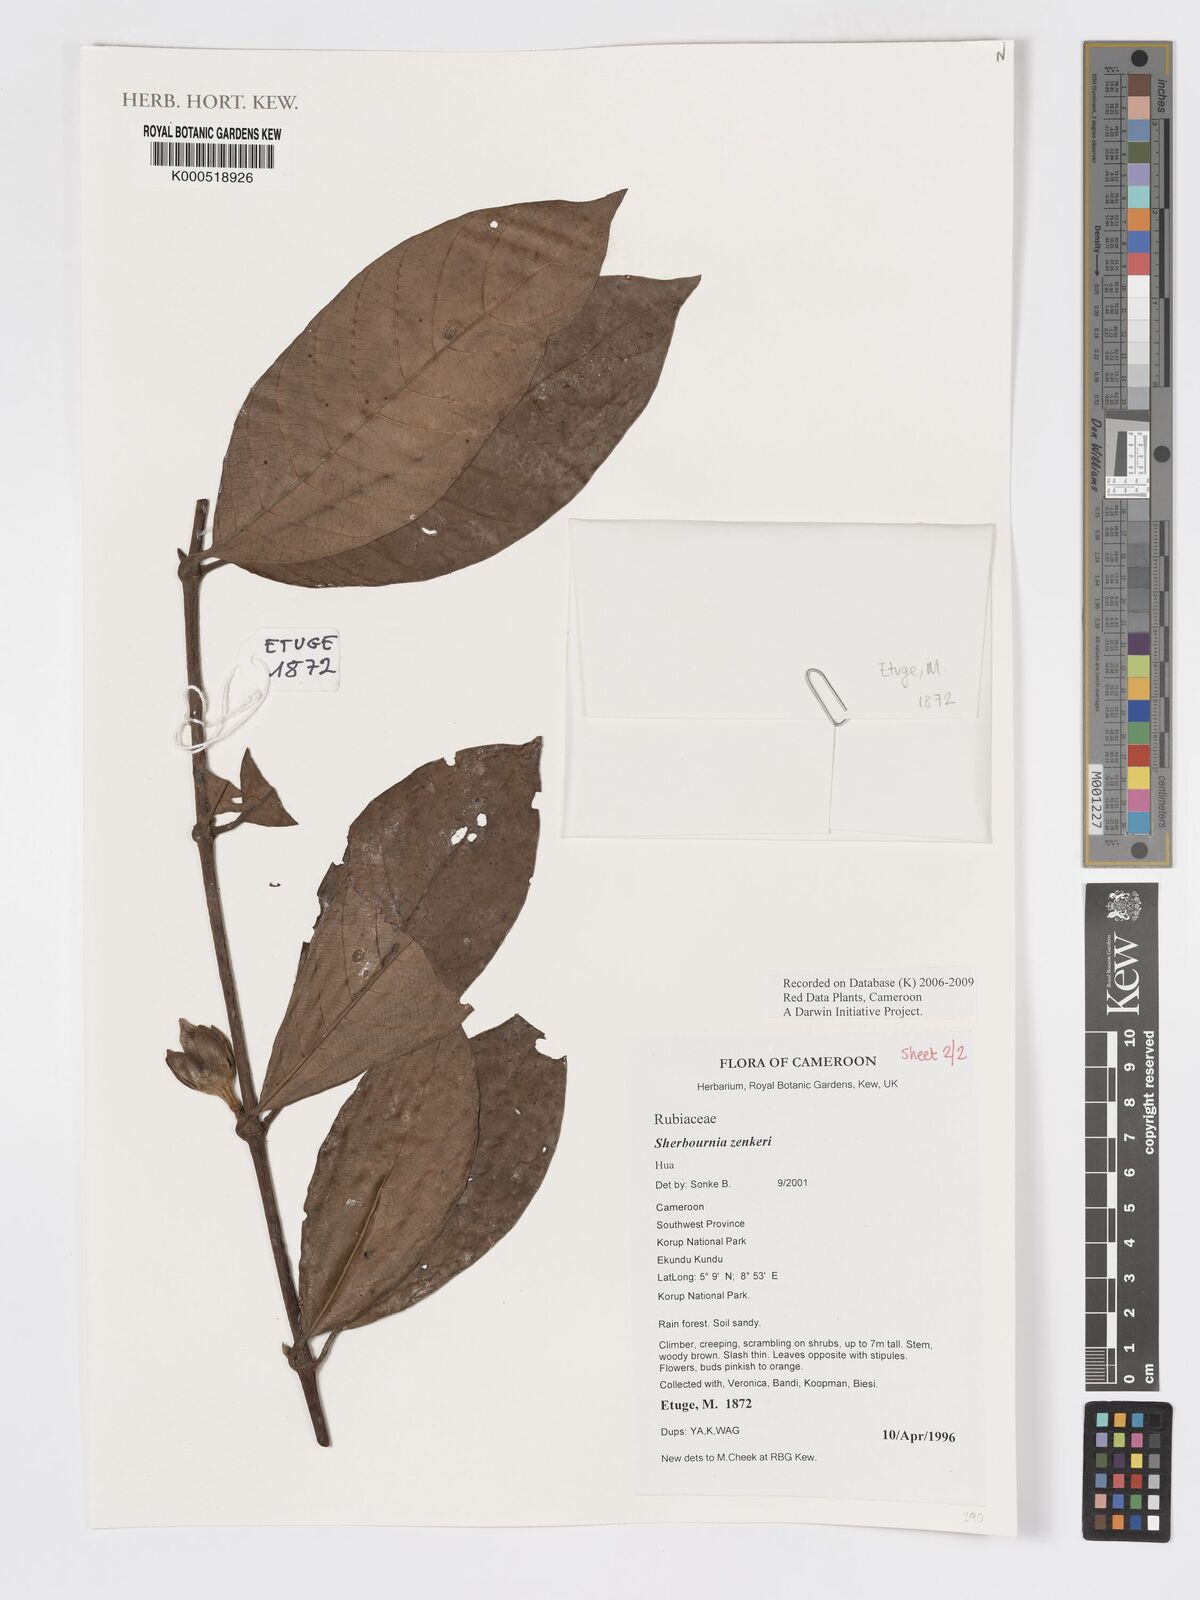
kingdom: Plantae
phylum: Tracheophyta
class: Magnoliopsida
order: Gentianales
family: Rubiaceae
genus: Sherbournia
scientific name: Sherbournia zenkeri
